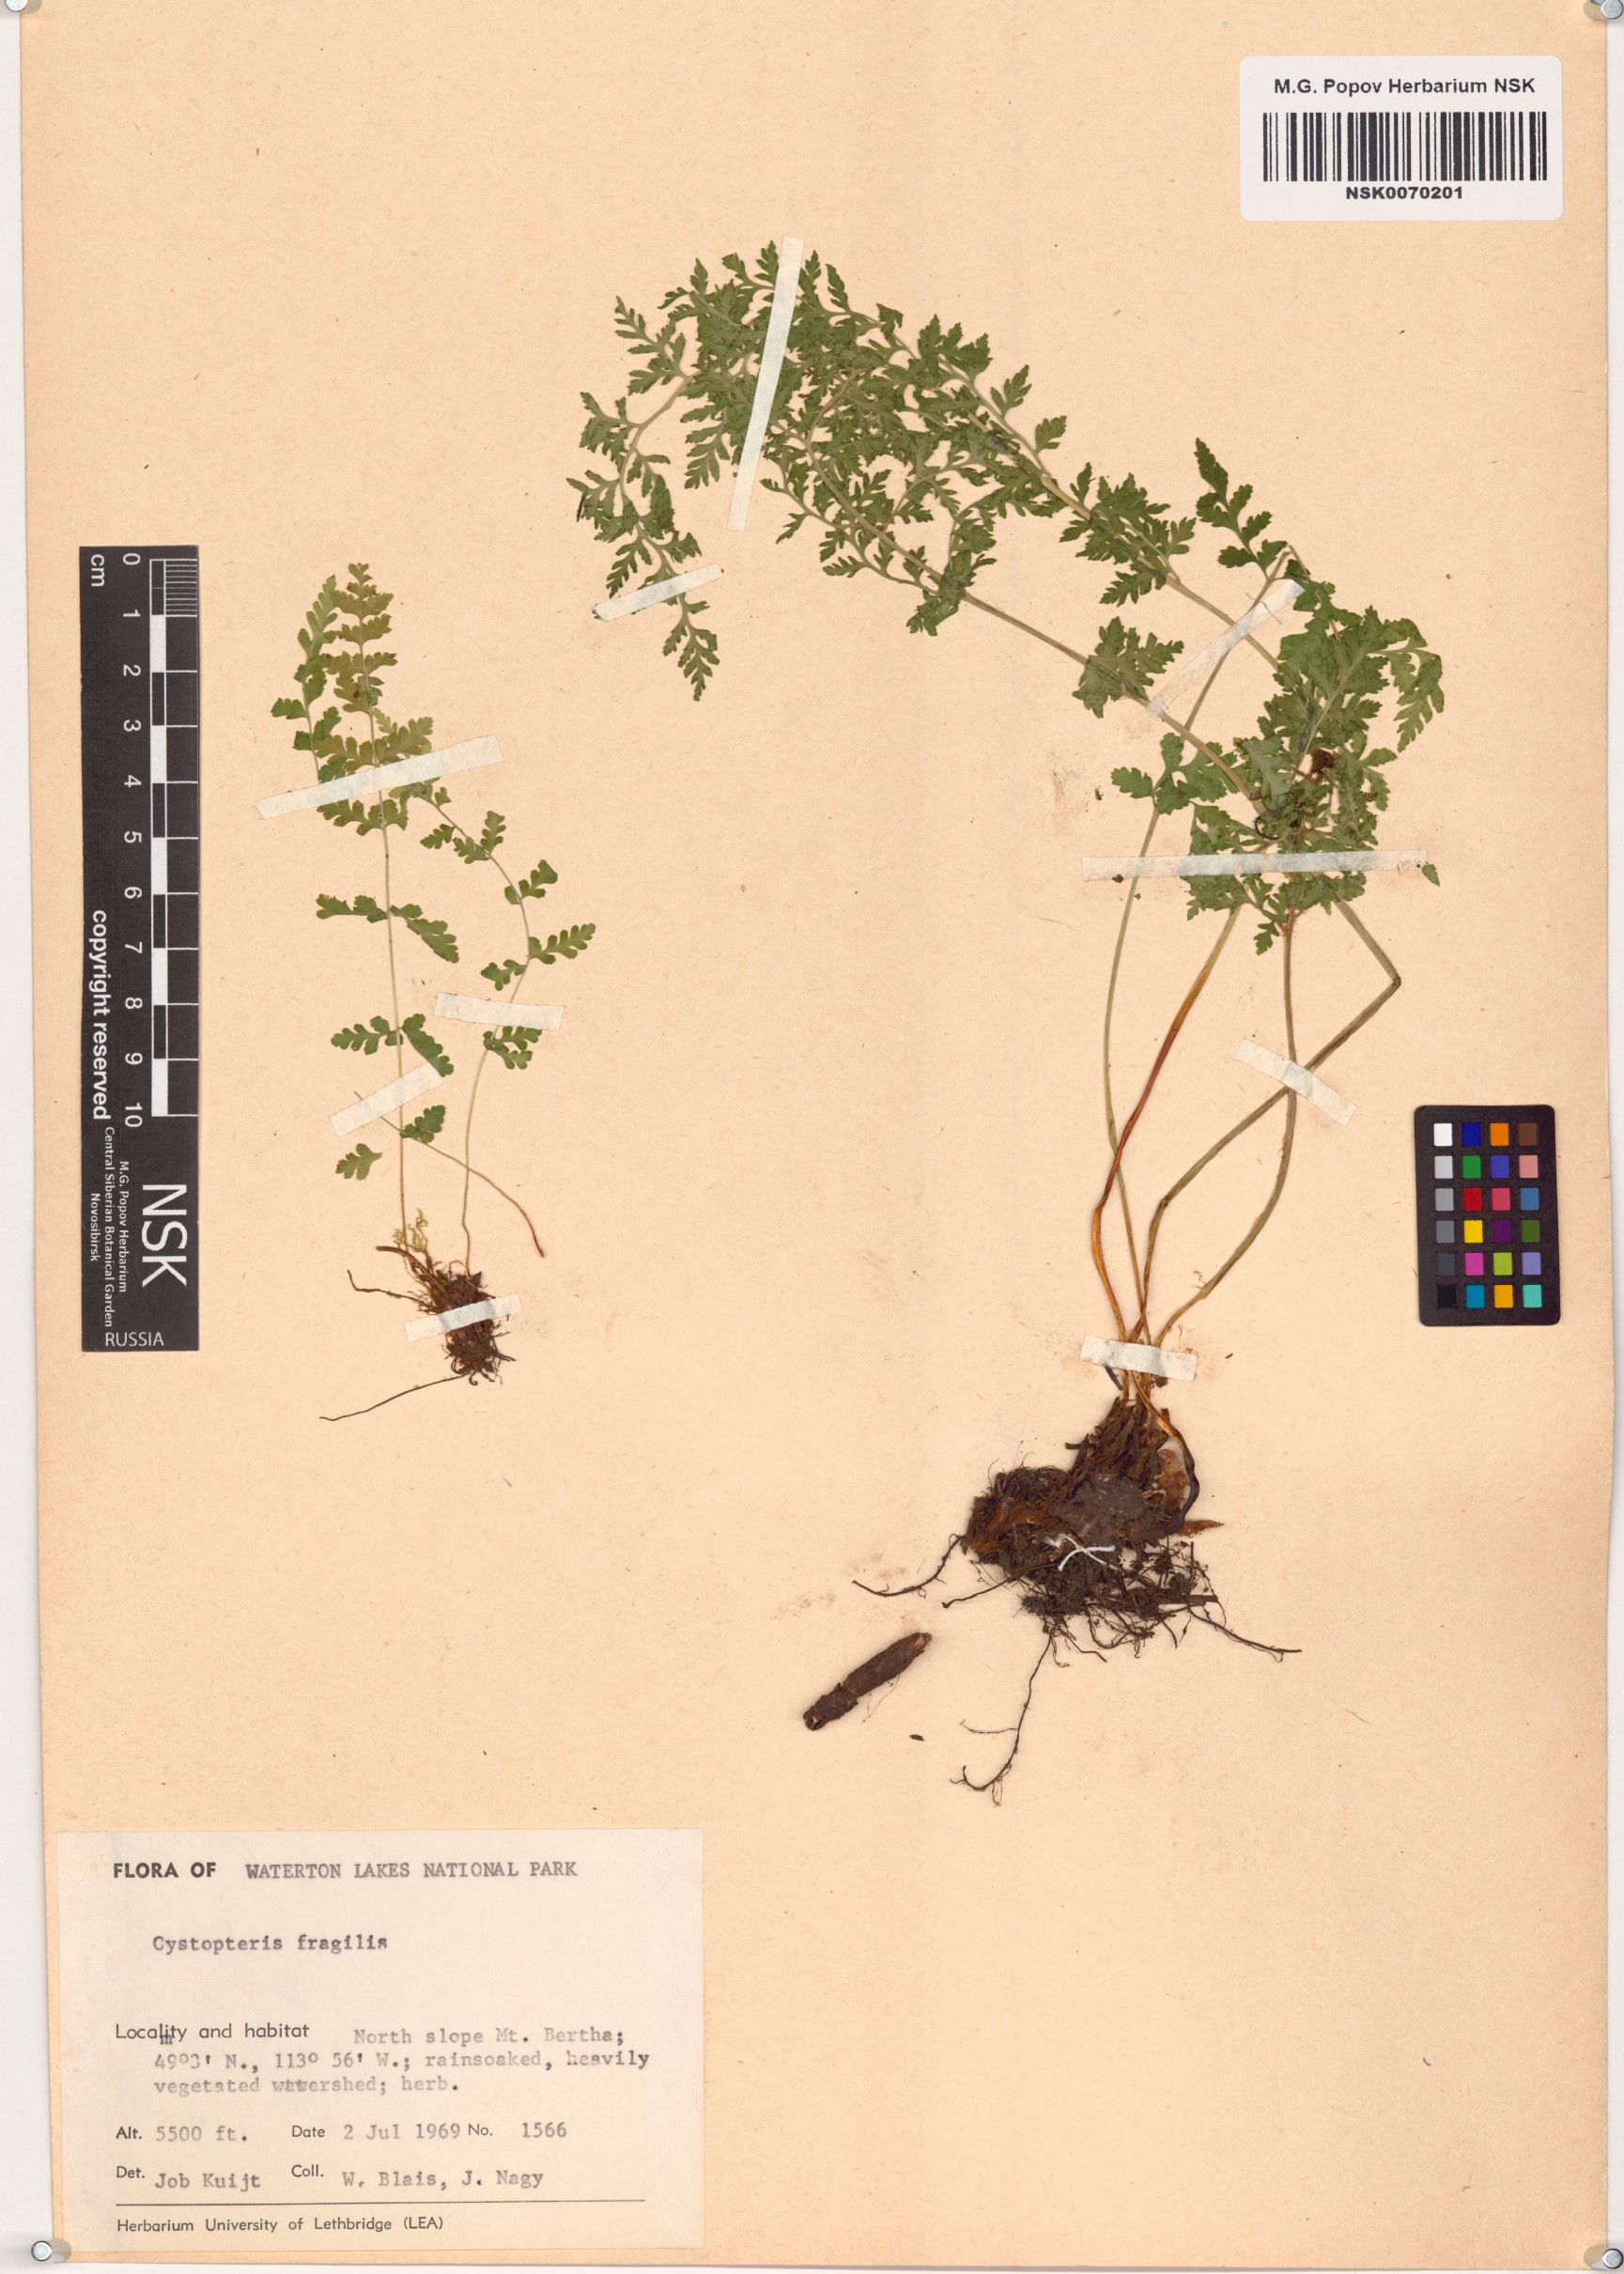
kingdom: Plantae
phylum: Tracheophyta
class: Polypodiopsida
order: Polypodiales
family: Cystopteridaceae
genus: Cystopteris
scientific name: Cystopteris fragilis
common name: Brittle bladder fern
